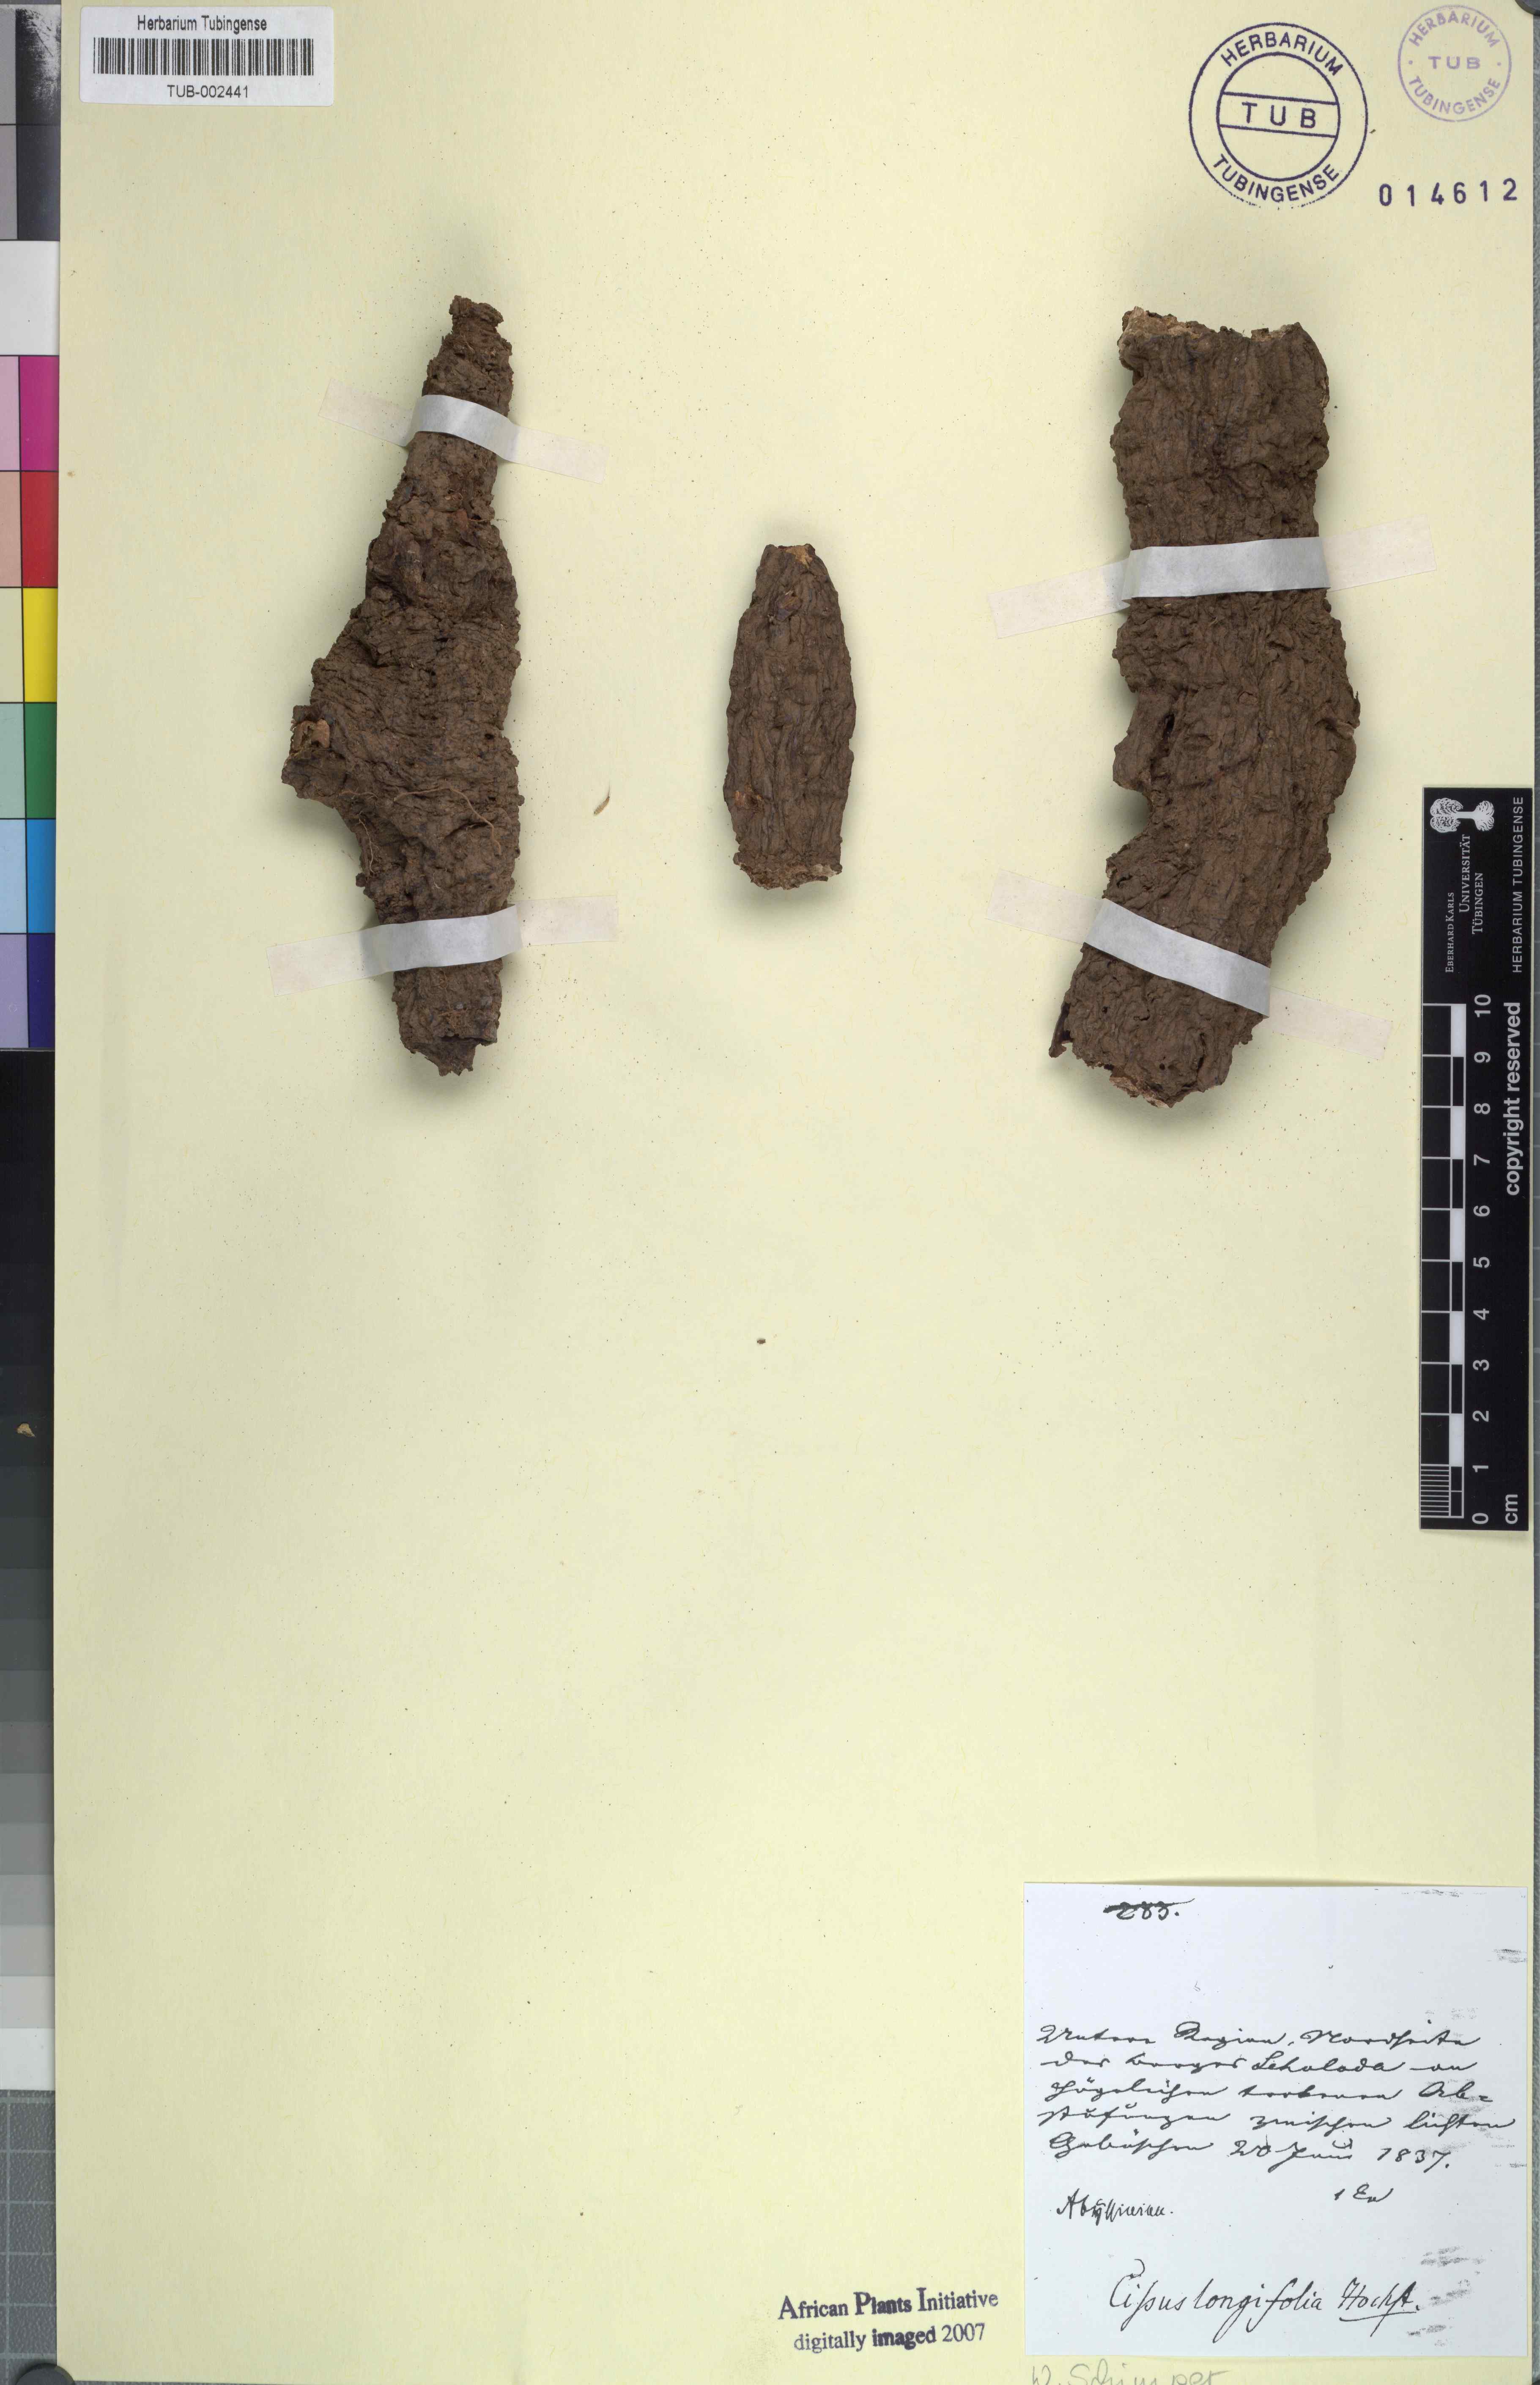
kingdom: Plantae
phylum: Tracheophyta
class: Magnoliopsida
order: Vitales
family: Vitaceae
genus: Cissus
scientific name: Cissus
